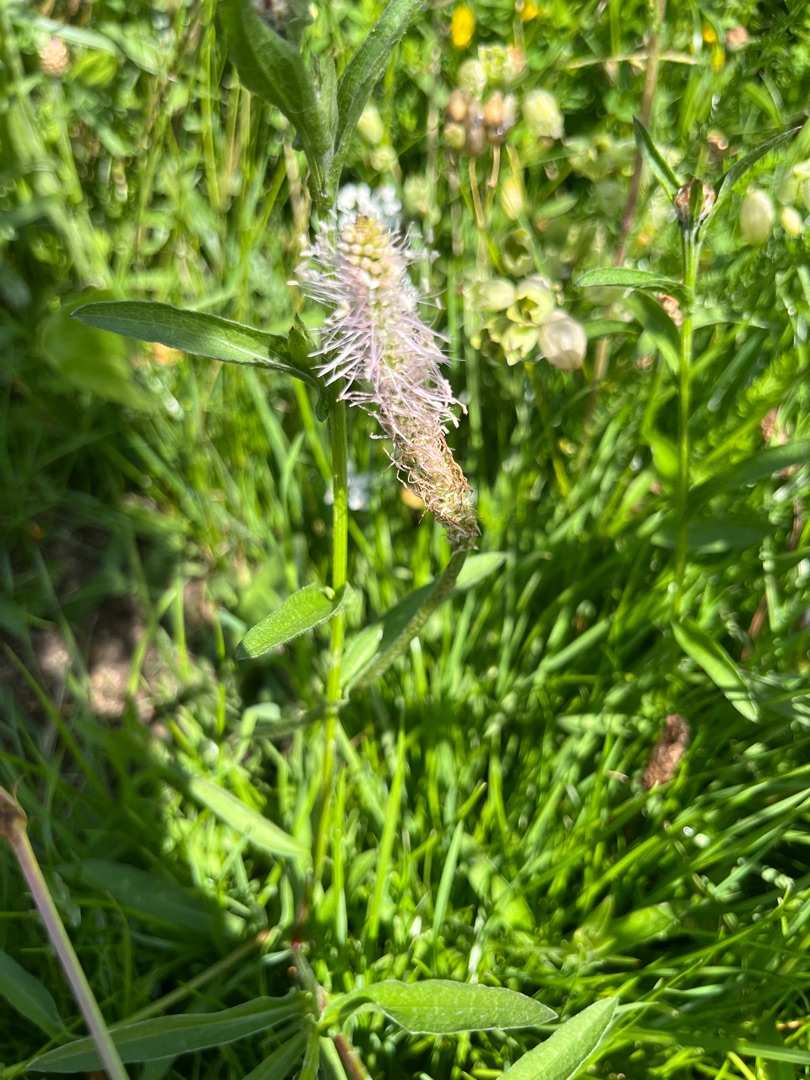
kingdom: Plantae
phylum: Tracheophyta
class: Magnoliopsida
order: Lamiales
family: Plantaginaceae
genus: Plantago
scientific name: Plantago media
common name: Dunet vejbred
